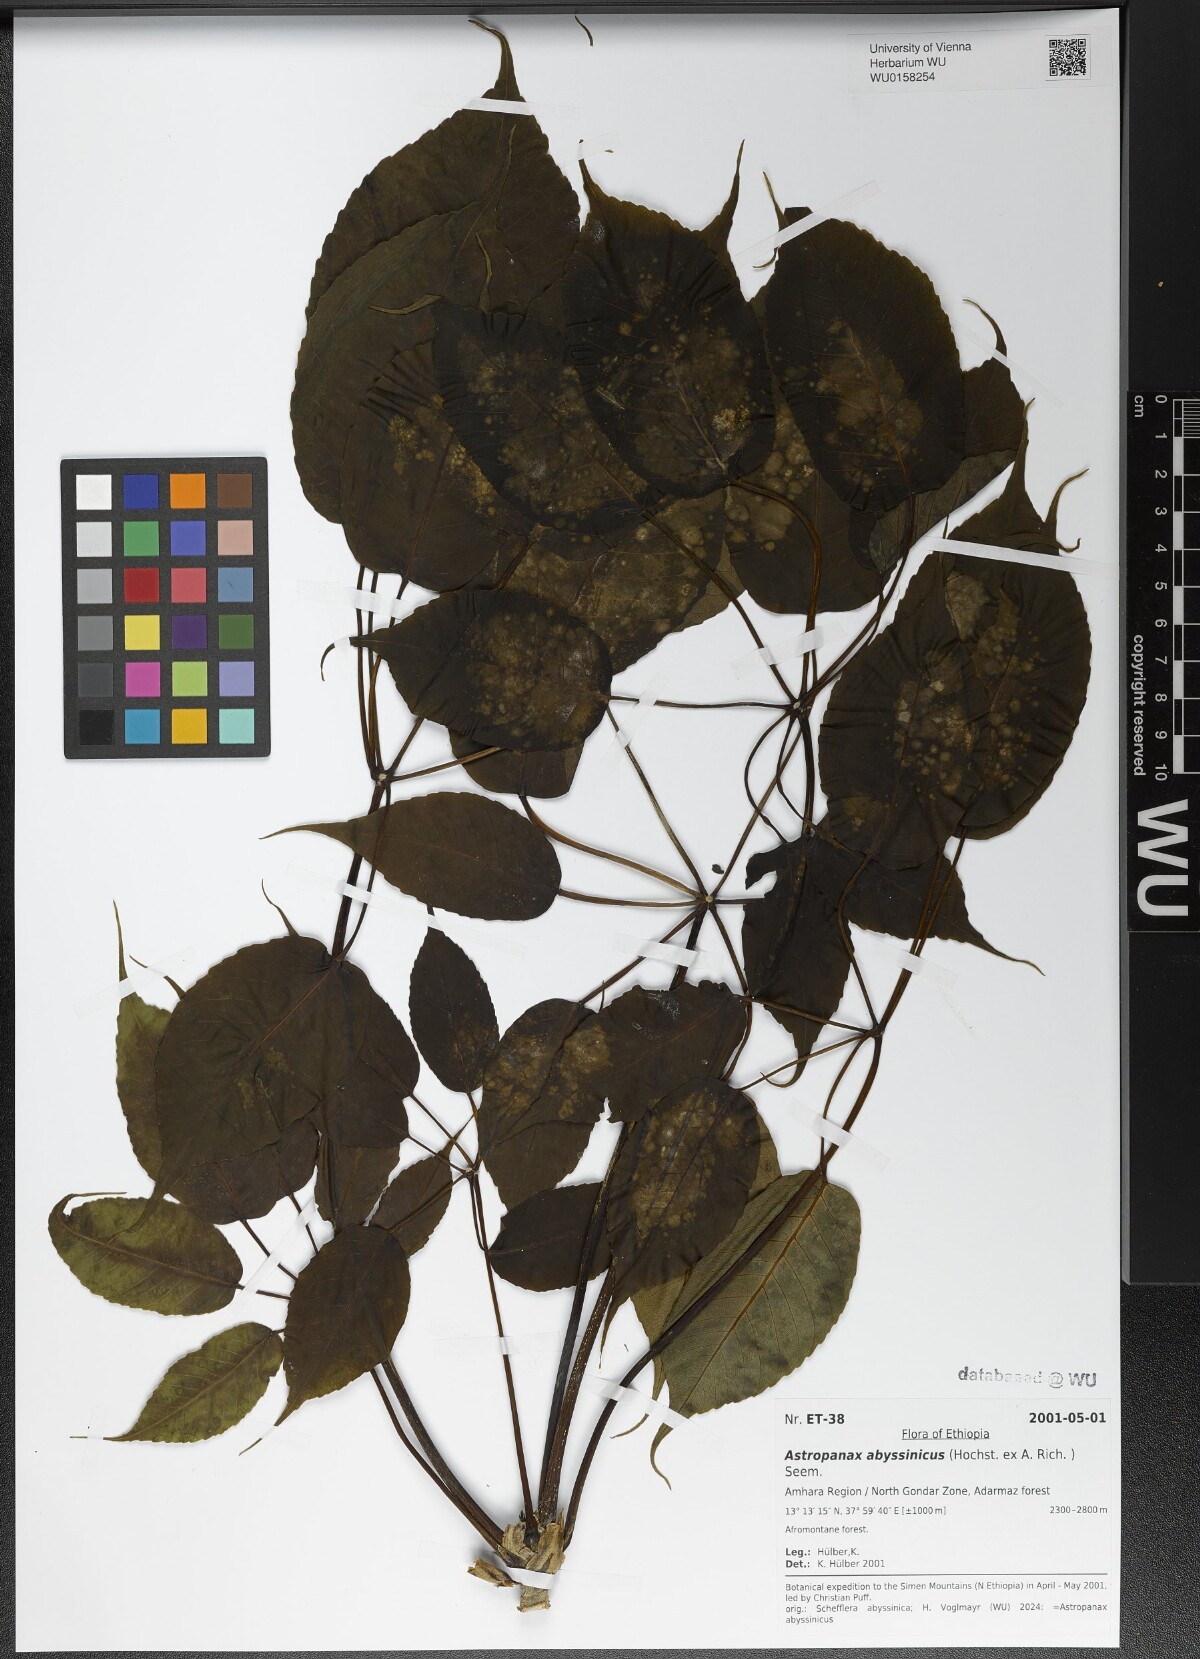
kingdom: Plantae
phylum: Tracheophyta
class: Magnoliopsida
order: Apiales
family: Araliaceae
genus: Astropanax
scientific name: Astropanax abyssinicum
